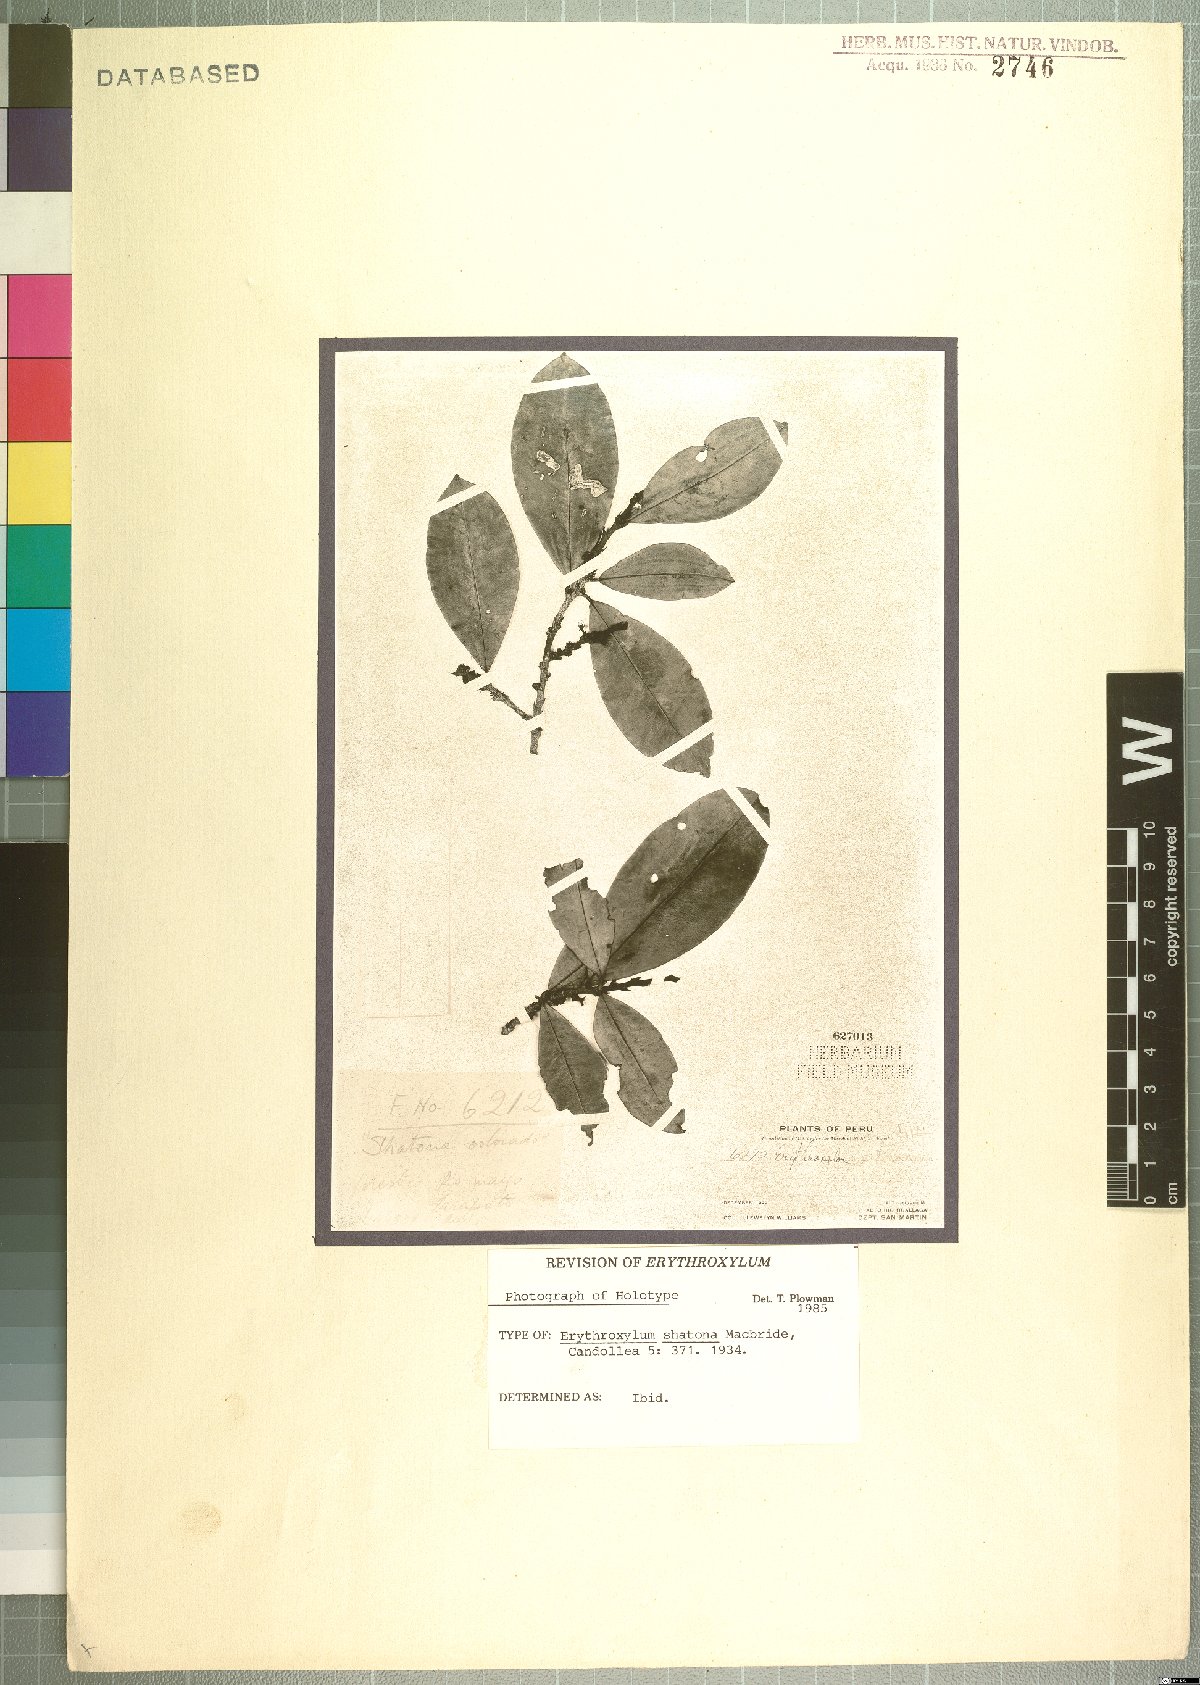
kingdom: Plantae
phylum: Tracheophyta
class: Magnoliopsida
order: Malpighiales
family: Erythroxylaceae
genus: Erythroxylum
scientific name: Erythroxylum shatona
